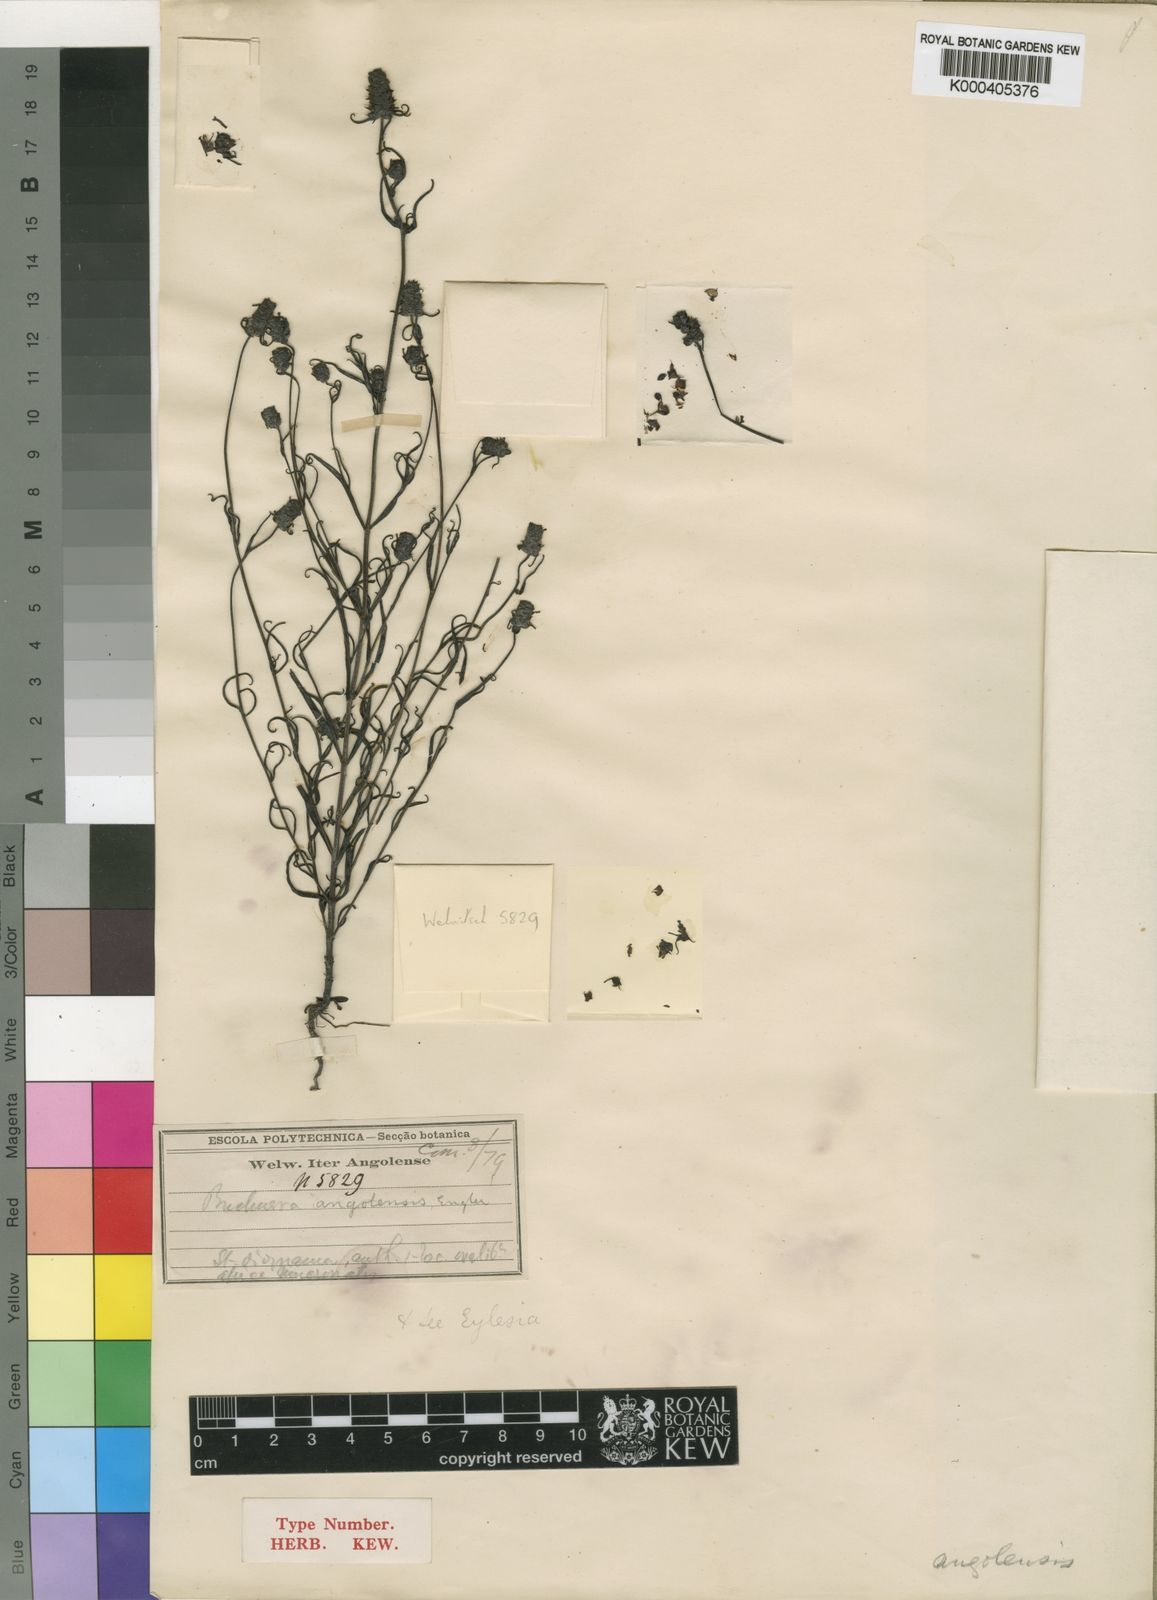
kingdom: Plantae
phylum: Tracheophyta
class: Magnoliopsida
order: Lamiales
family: Orobanchaceae
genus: Buchnera
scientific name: Buchnera lippioides
